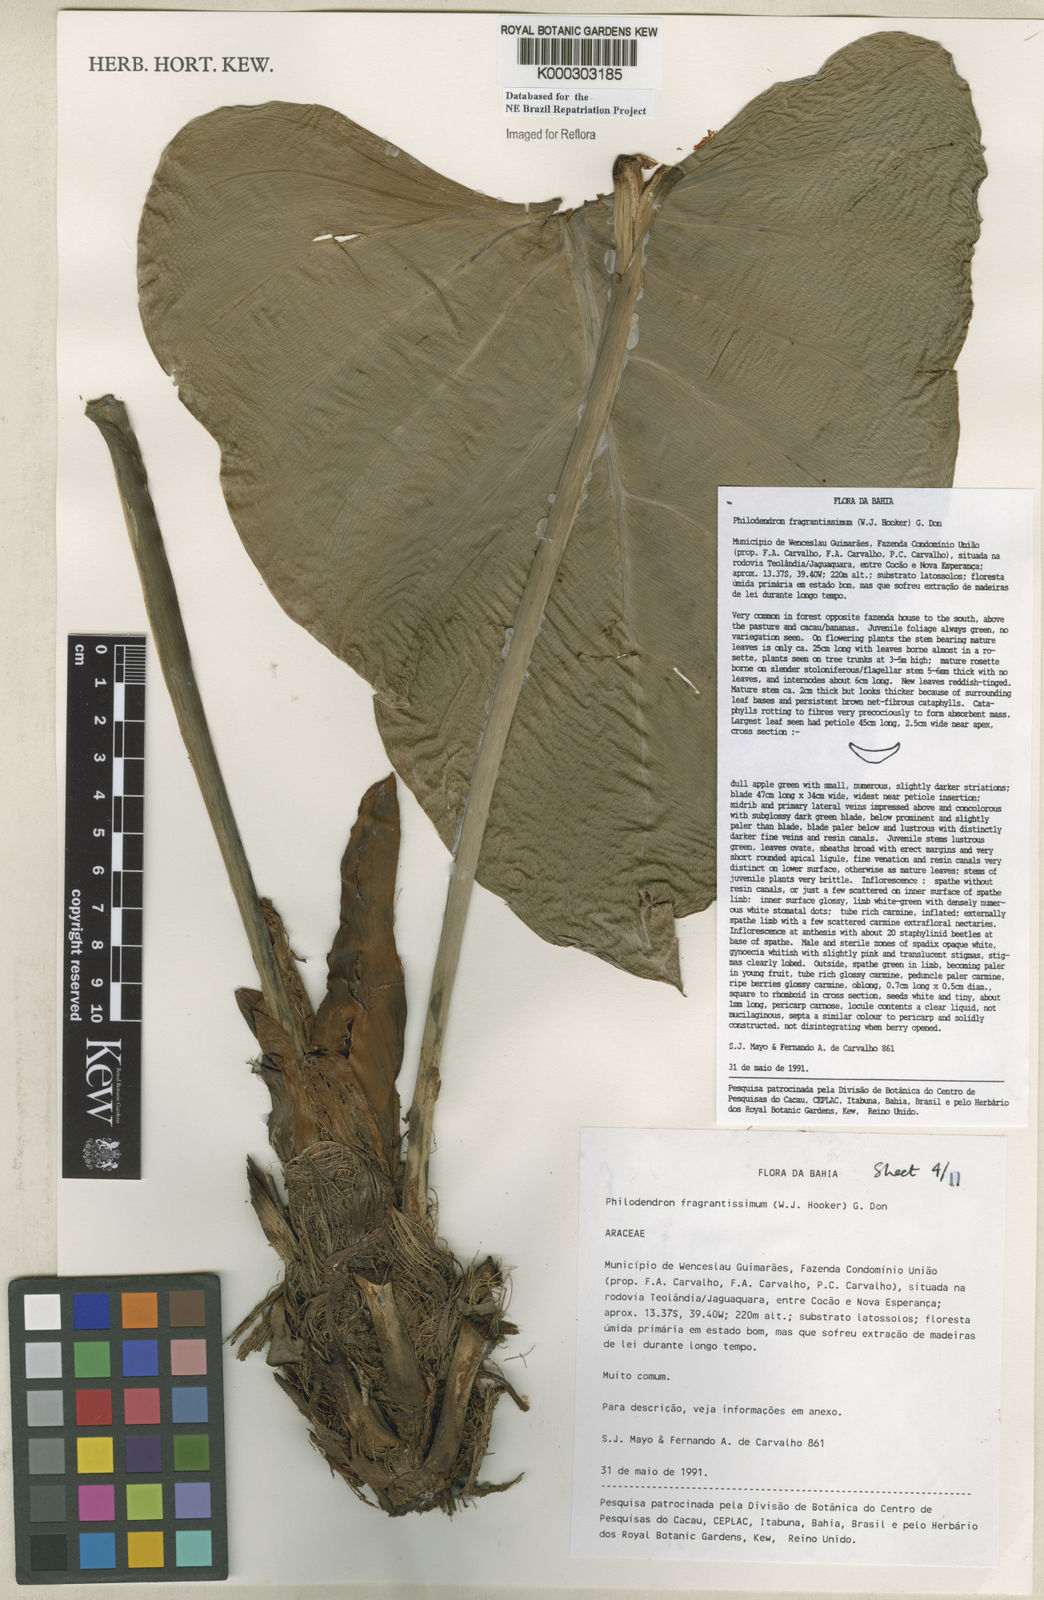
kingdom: Plantae
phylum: Tracheophyta
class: Liliopsida
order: Alismatales
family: Araceae
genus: Philodendron
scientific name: Philodendron fragrantissimum
